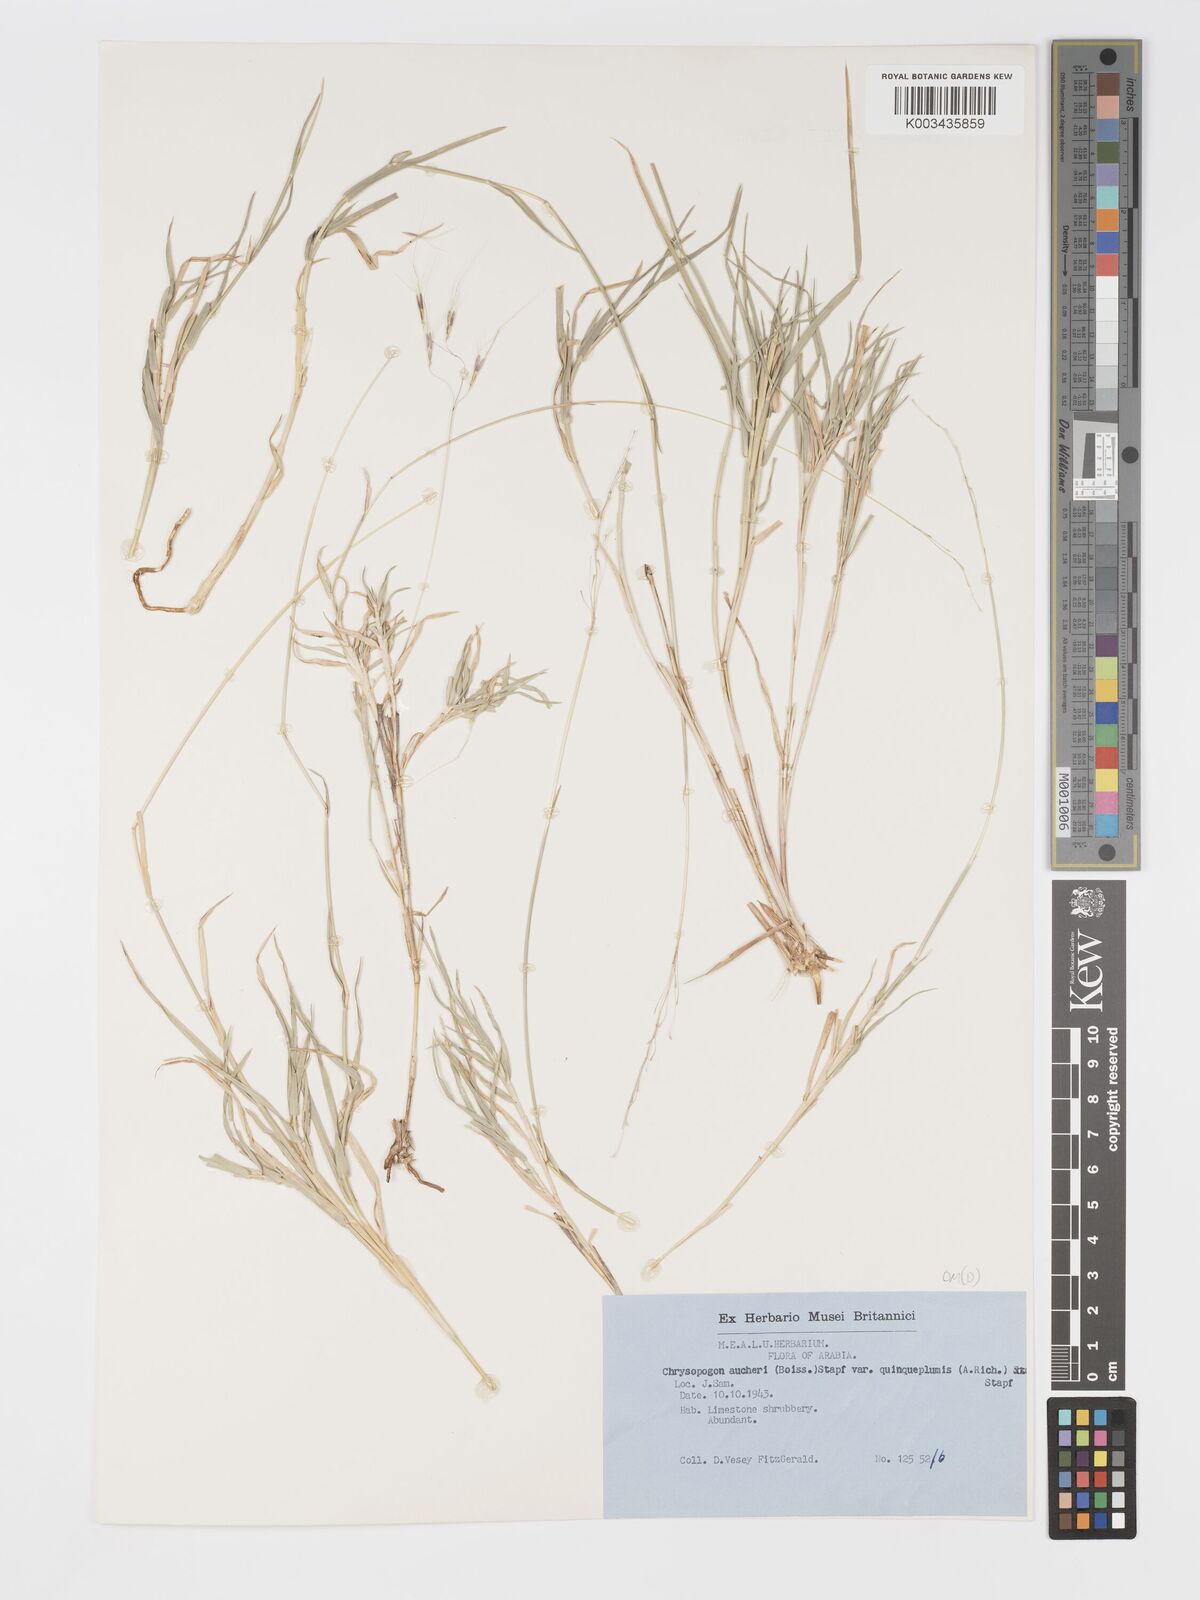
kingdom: Plantae
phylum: Tracheophyta
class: Liliopsida
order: Poales
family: Poaceae
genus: Chrysopogon
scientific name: Chrysopogon plumulosus
